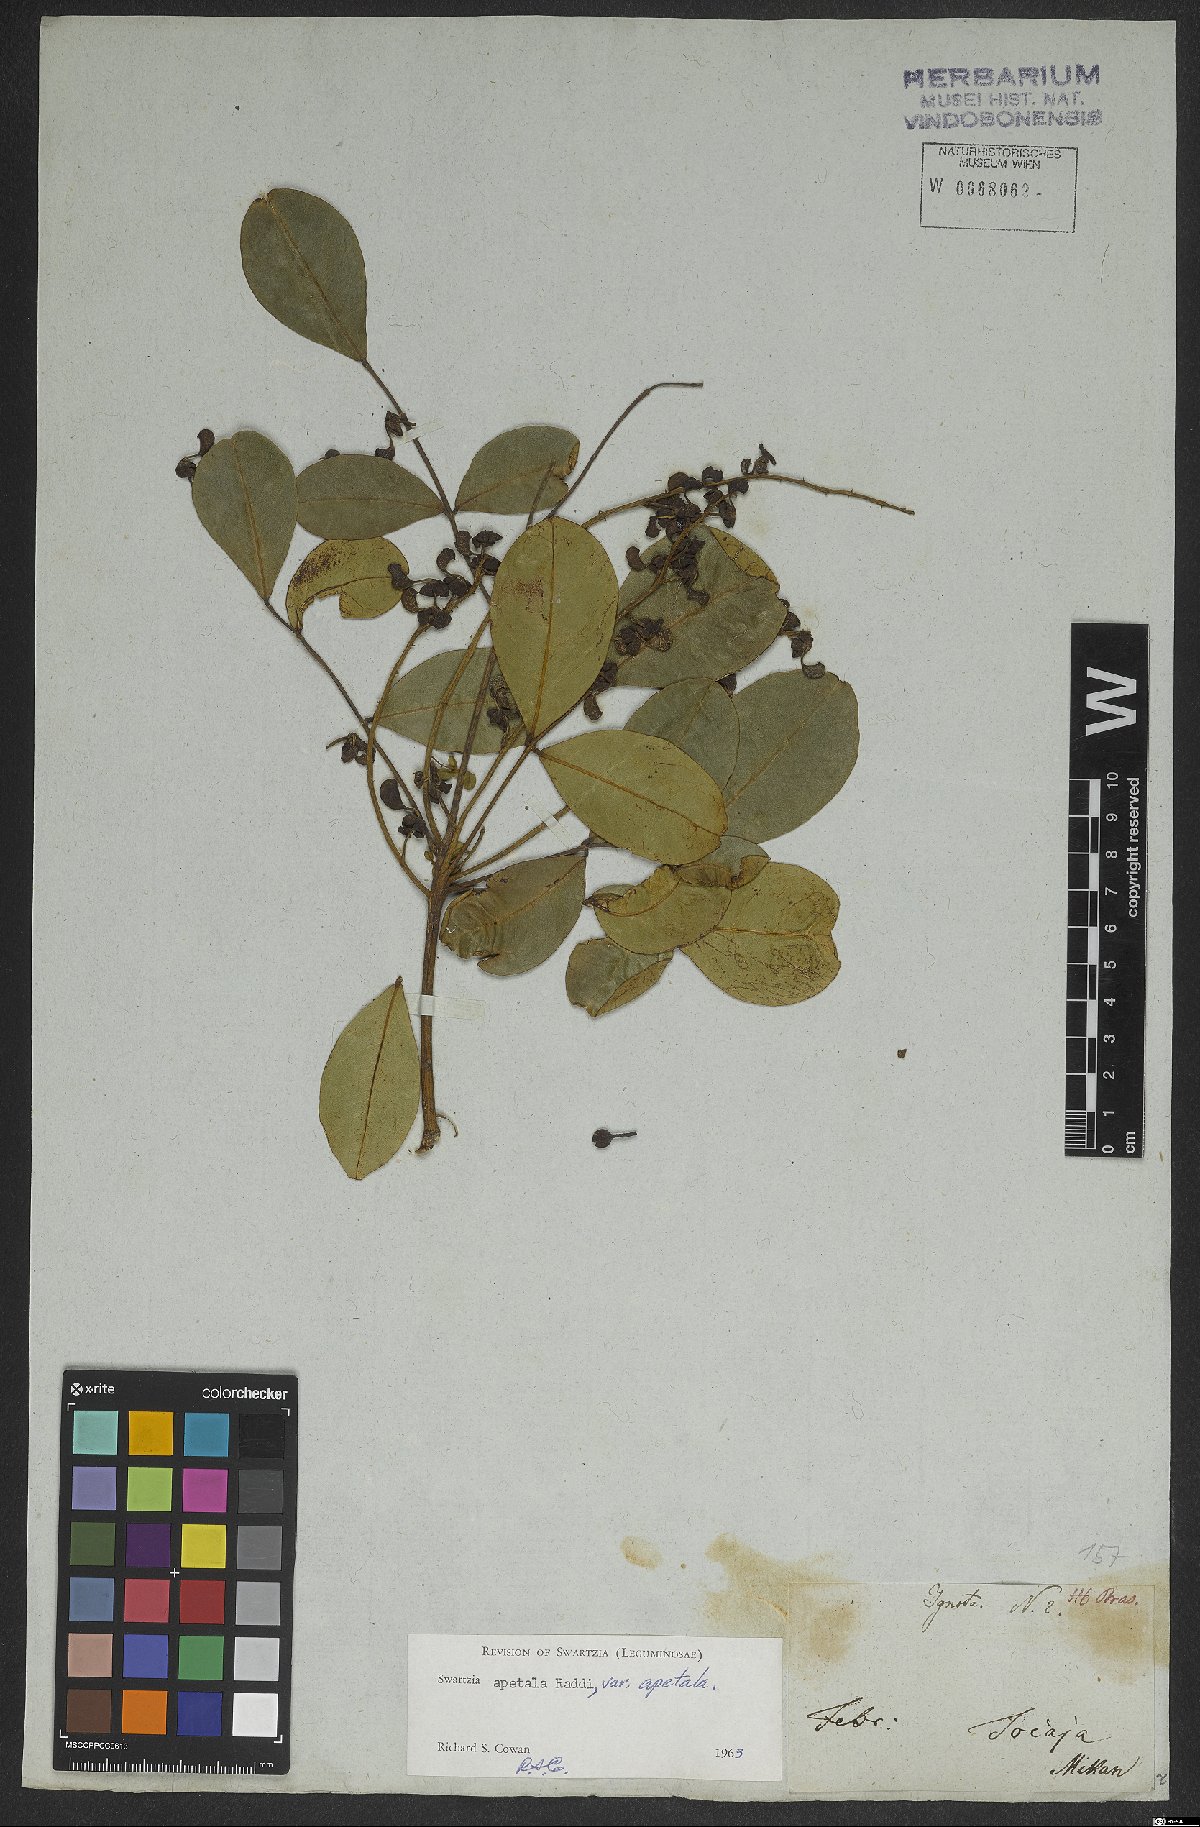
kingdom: Plantae
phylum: Tracheophyta
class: Magnoliopsida
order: Fabales
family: Fabaceae
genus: Swartzia
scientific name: Swartzia apetala
